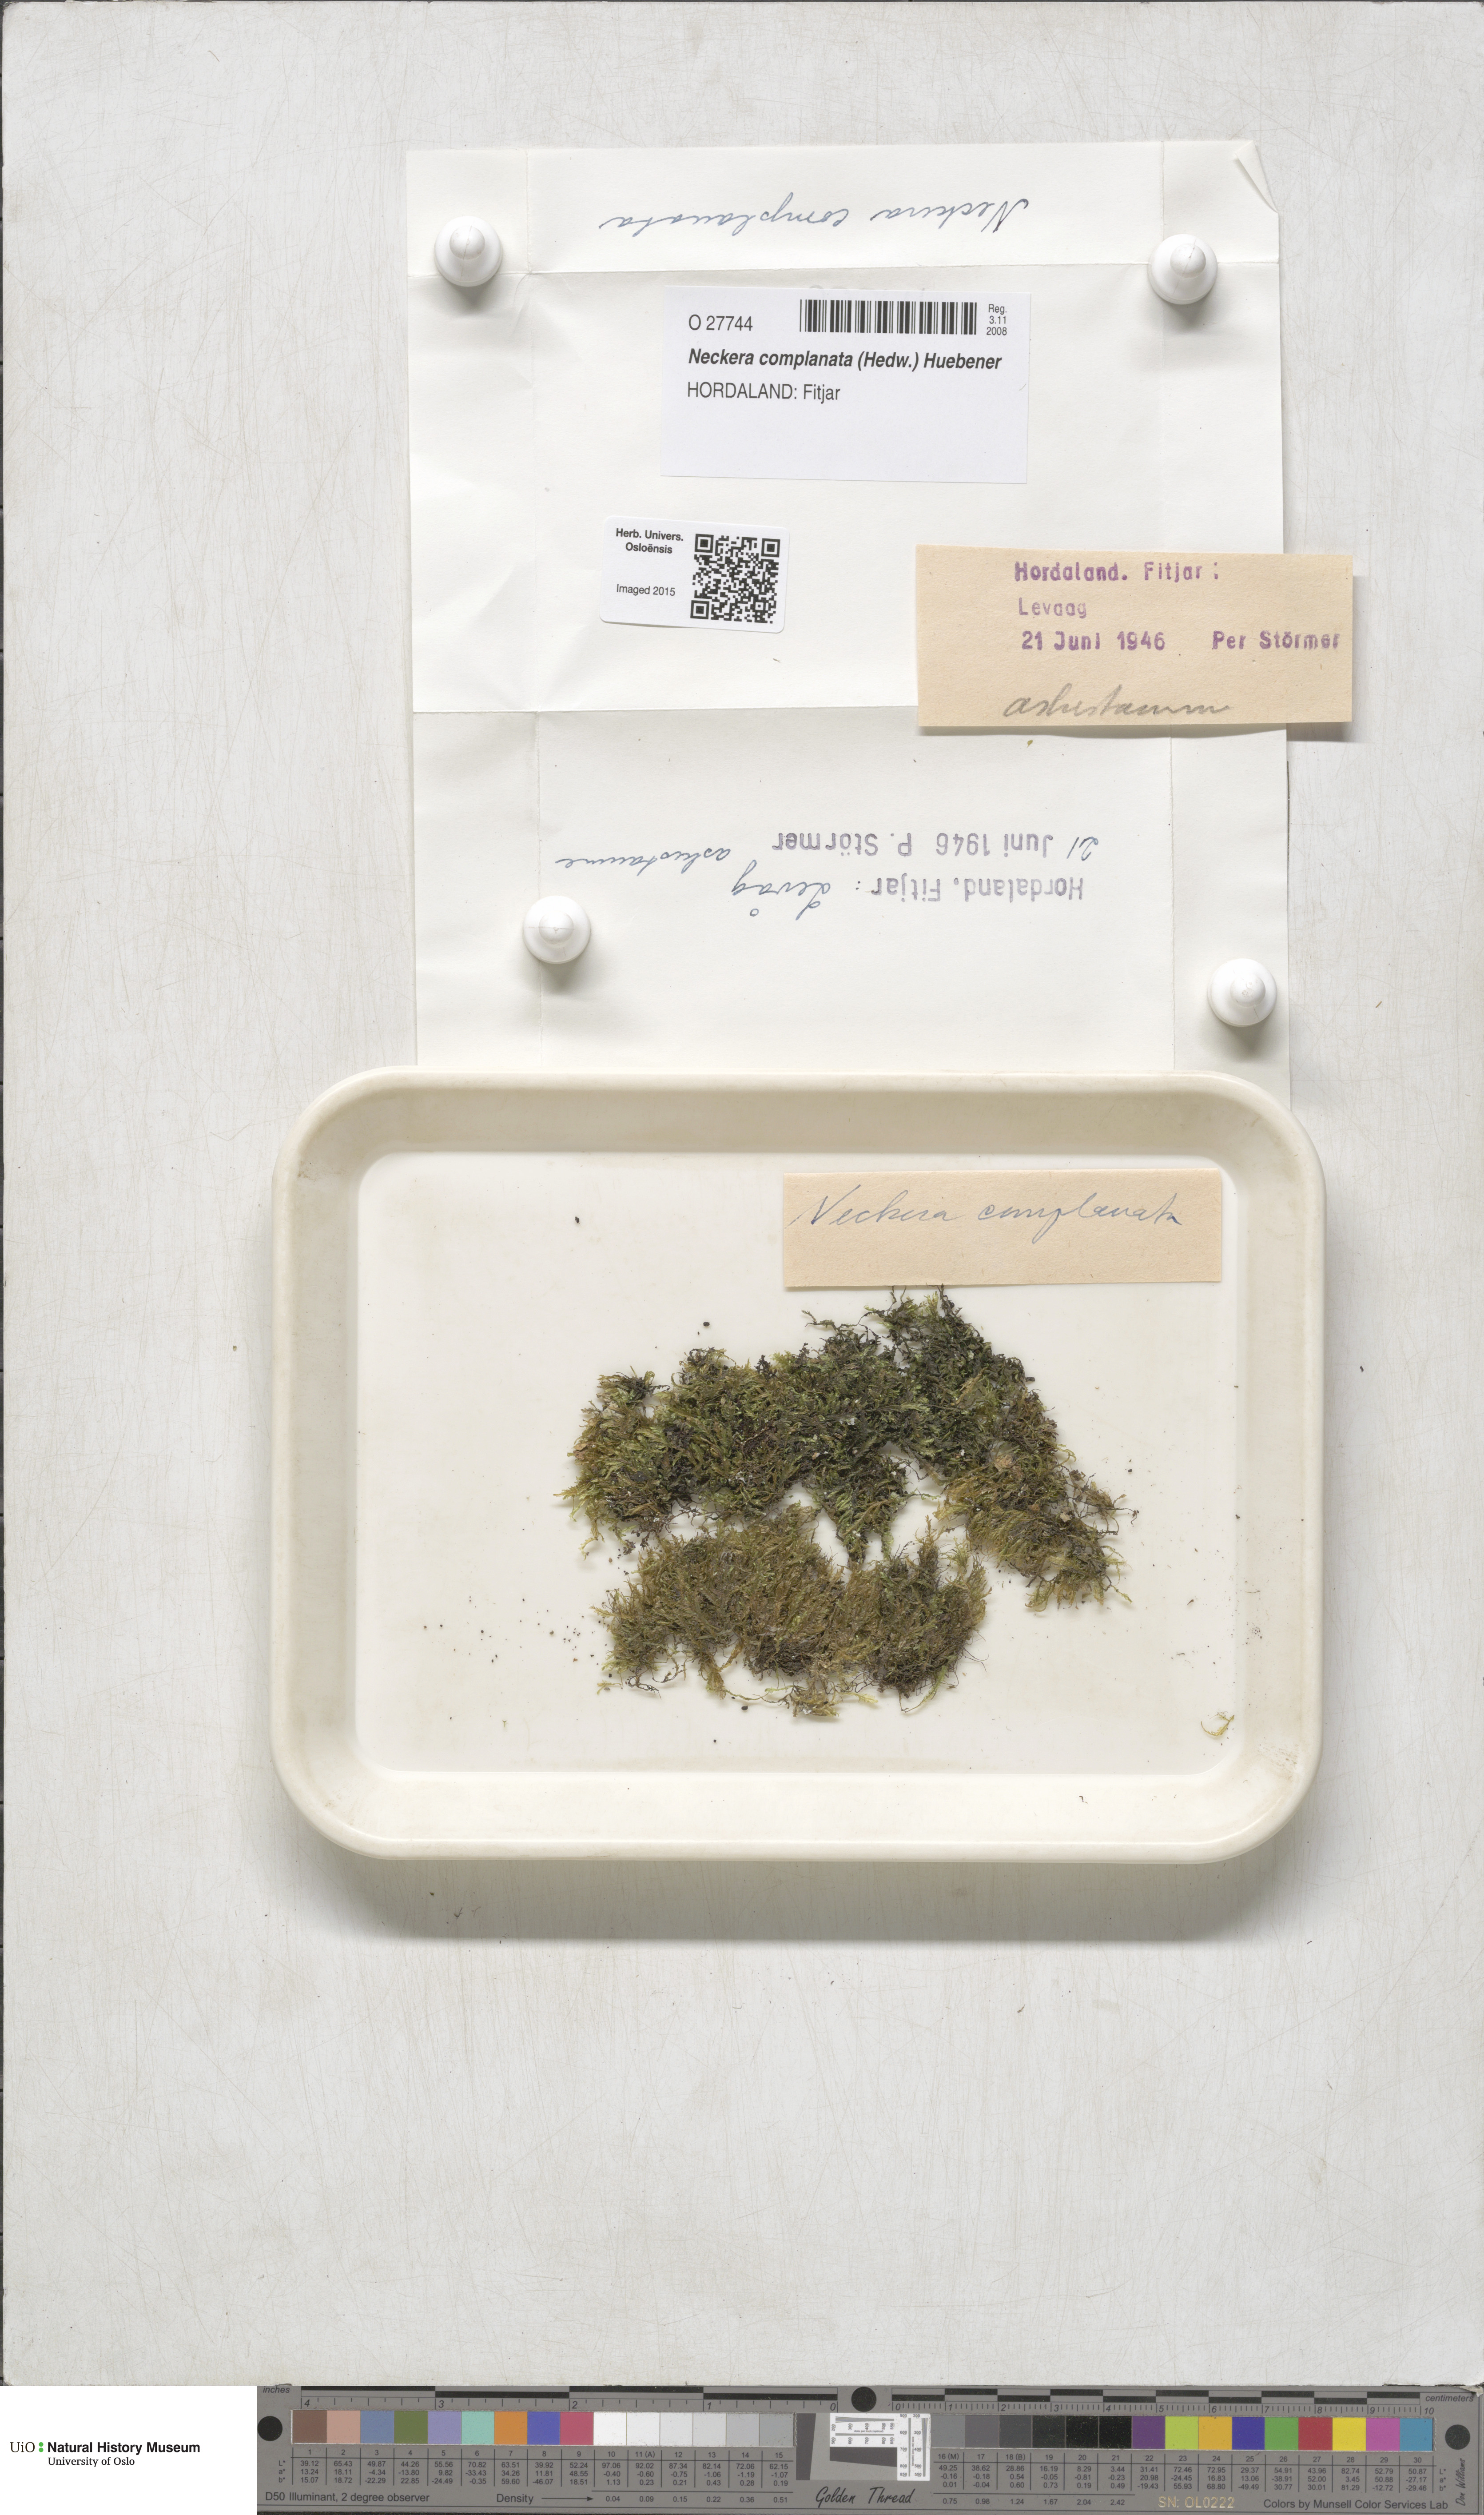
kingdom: Plantae
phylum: Bryophyta
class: Bryopsida
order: Hypnales
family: Neckeraceae
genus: Alleniella
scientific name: Alleniella complanata
